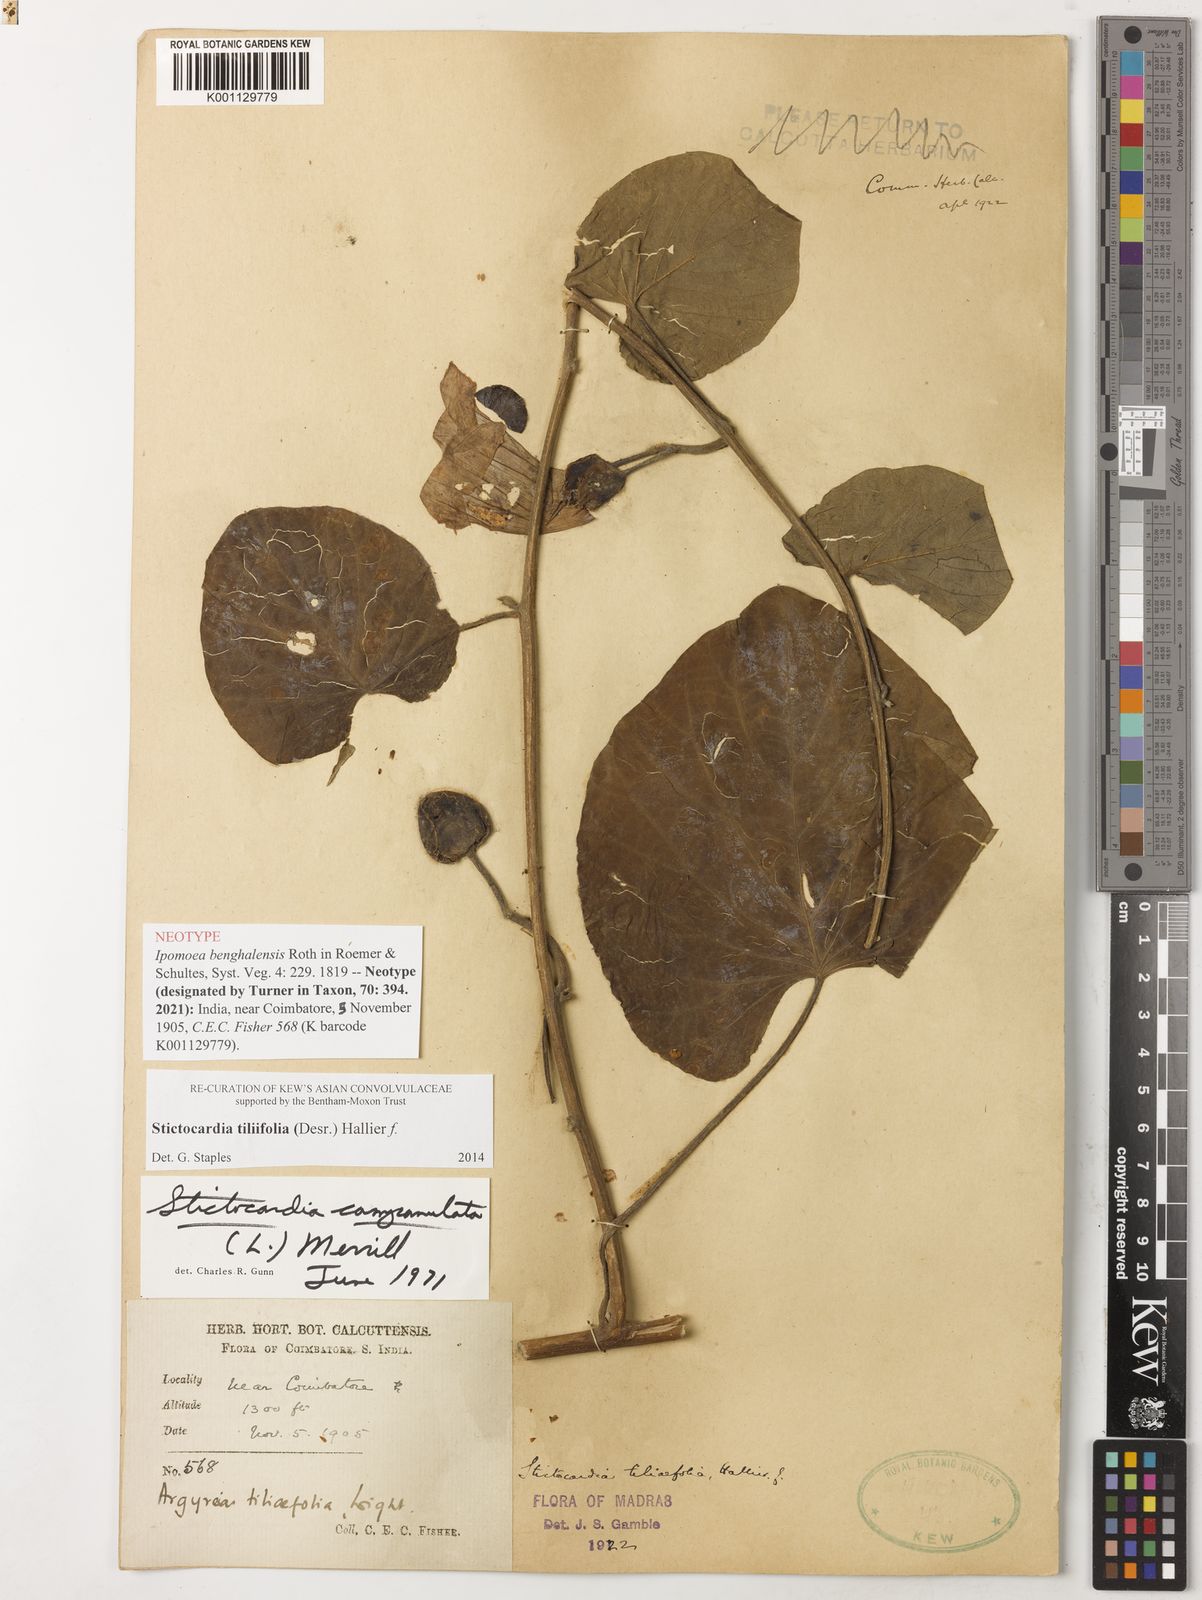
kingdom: Plantae
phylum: Tracheophyta
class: Magnoliopsida
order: Solanales
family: Convolvulaceae
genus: Stictocardia
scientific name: Stictocardia tiliifolia
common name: Spottedheart
